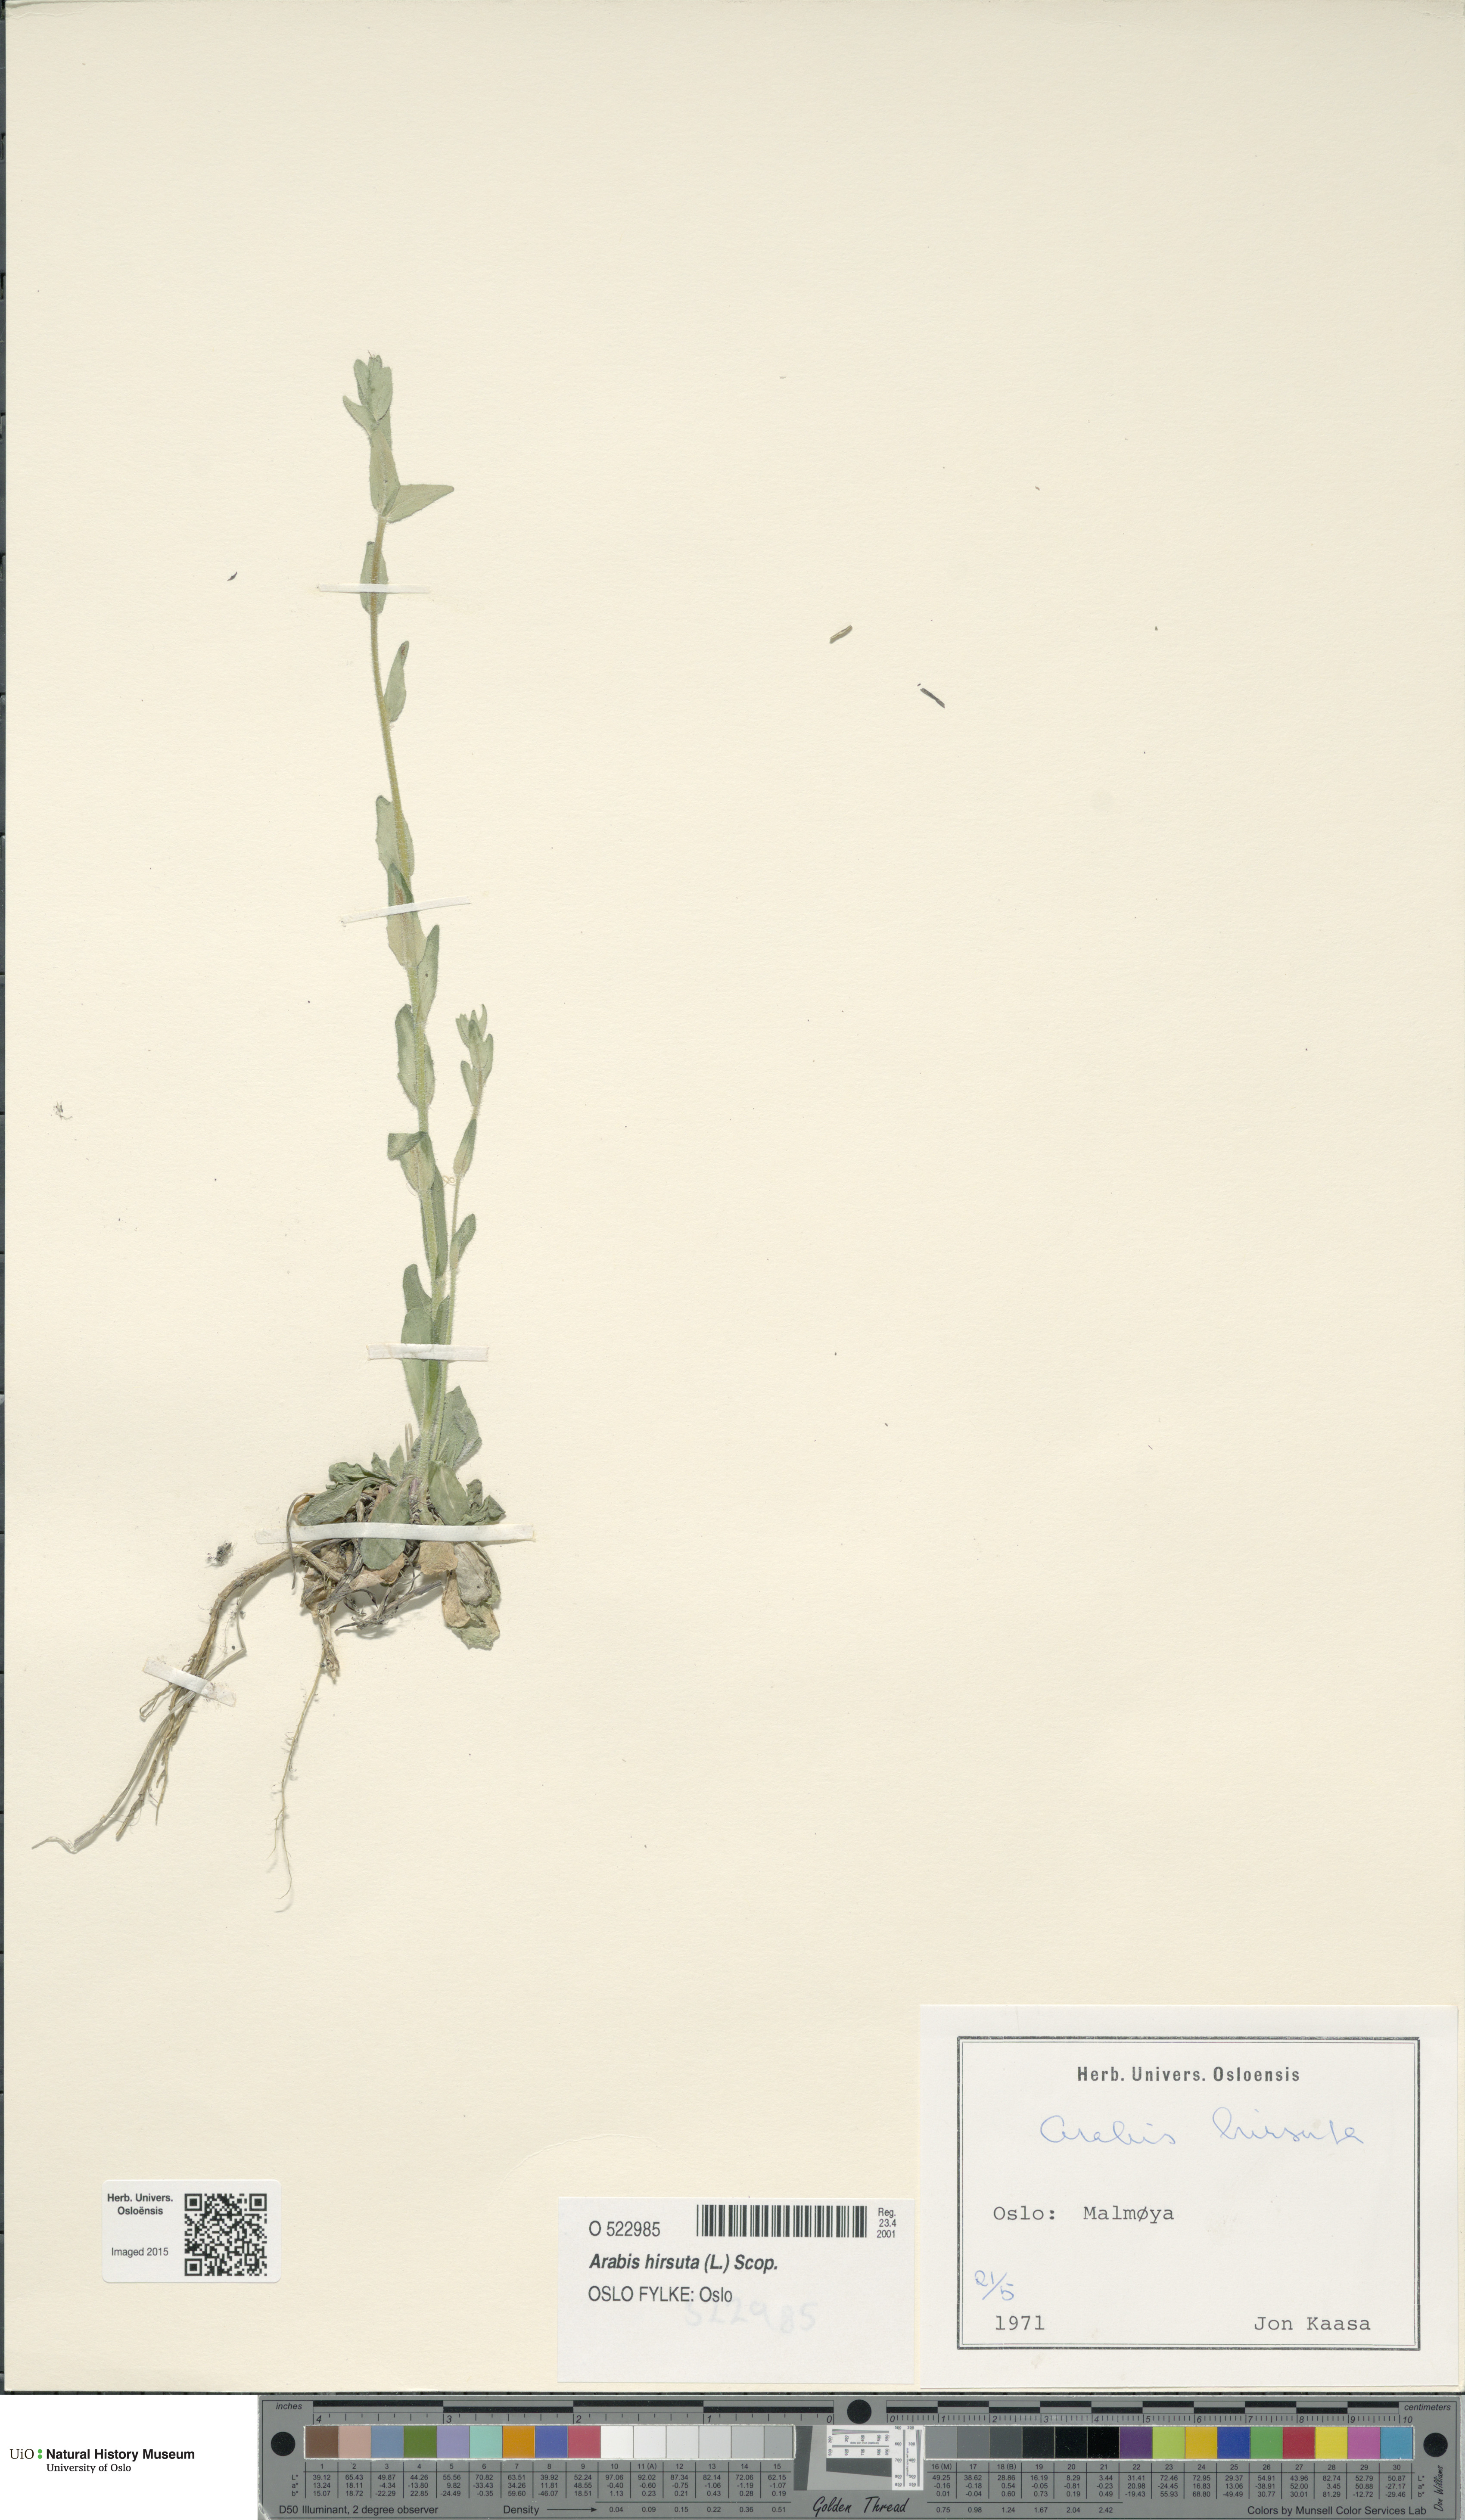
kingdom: Plantae
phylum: Tracheophyta
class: Magnoliopsida
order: Brassicales
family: Brassicaceae
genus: Arabis
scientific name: Arabis hirsuta
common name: Hairy rock-cress
